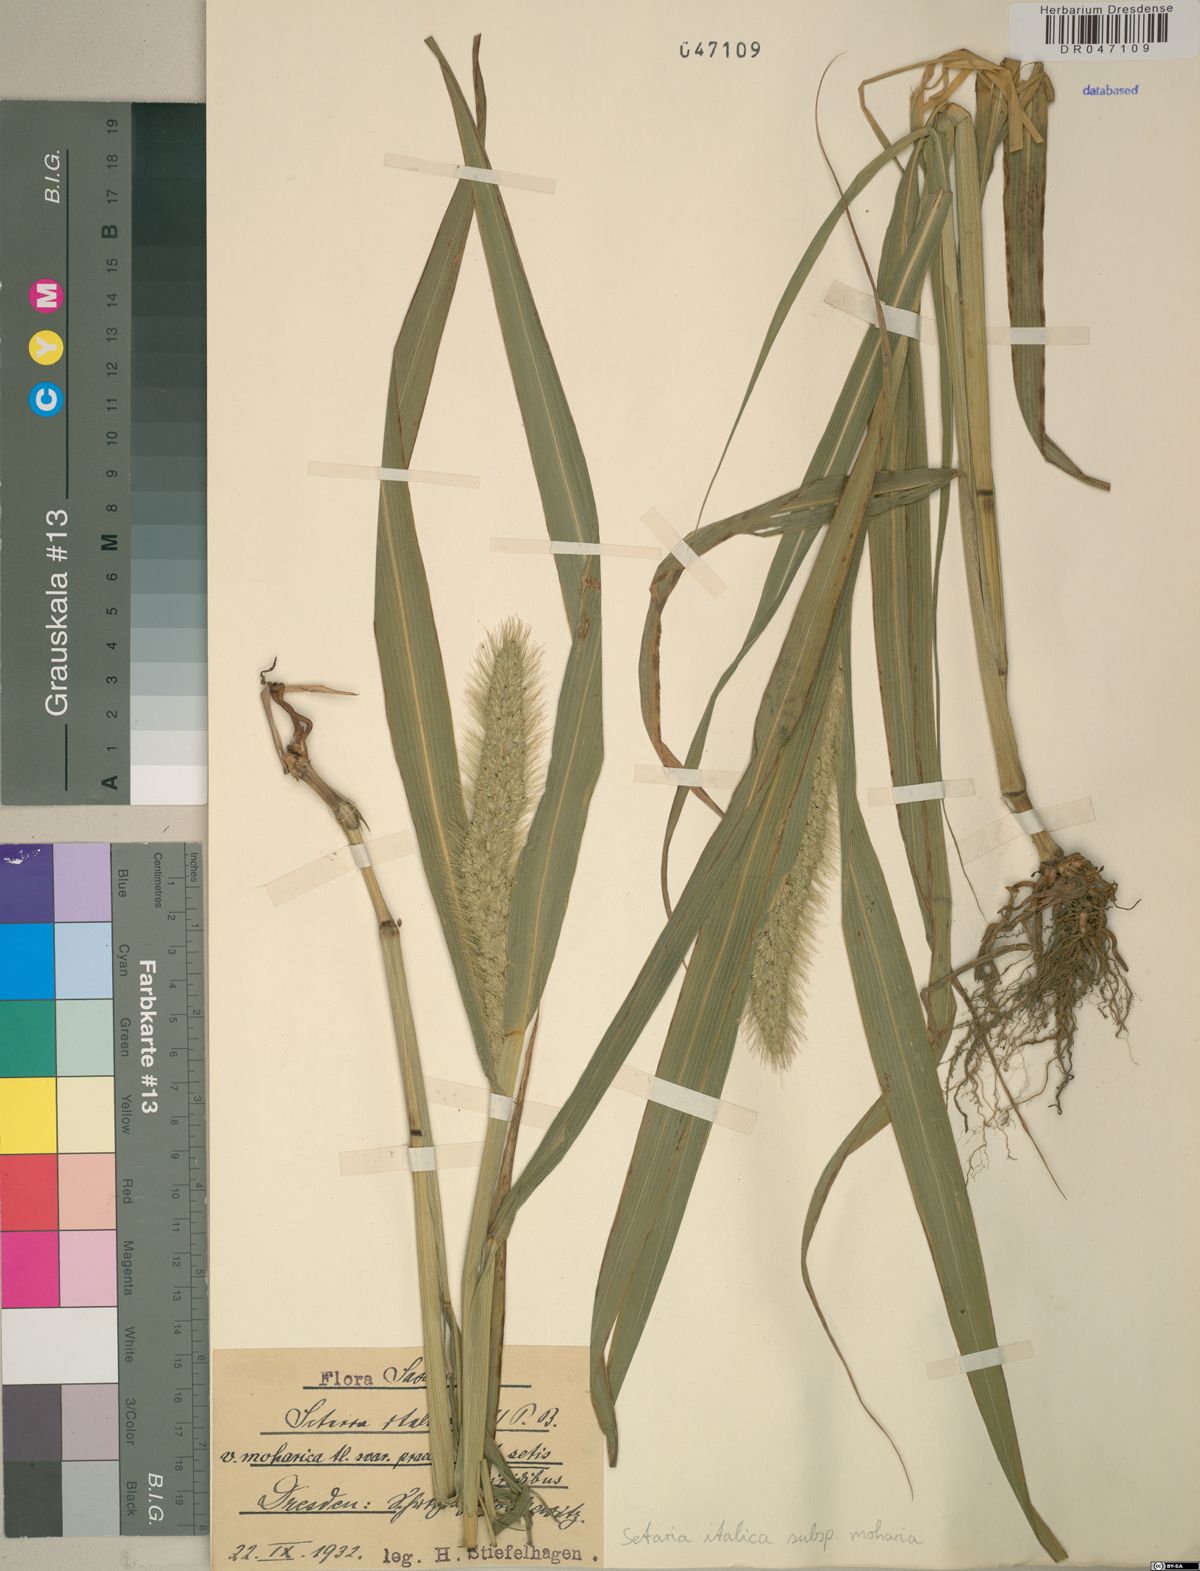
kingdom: Plantae
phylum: Tracheophyta
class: Liliopsida
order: Poales
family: Poaceae
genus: Setaria
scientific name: Setaria italica
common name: Foxtail bristle-grass
